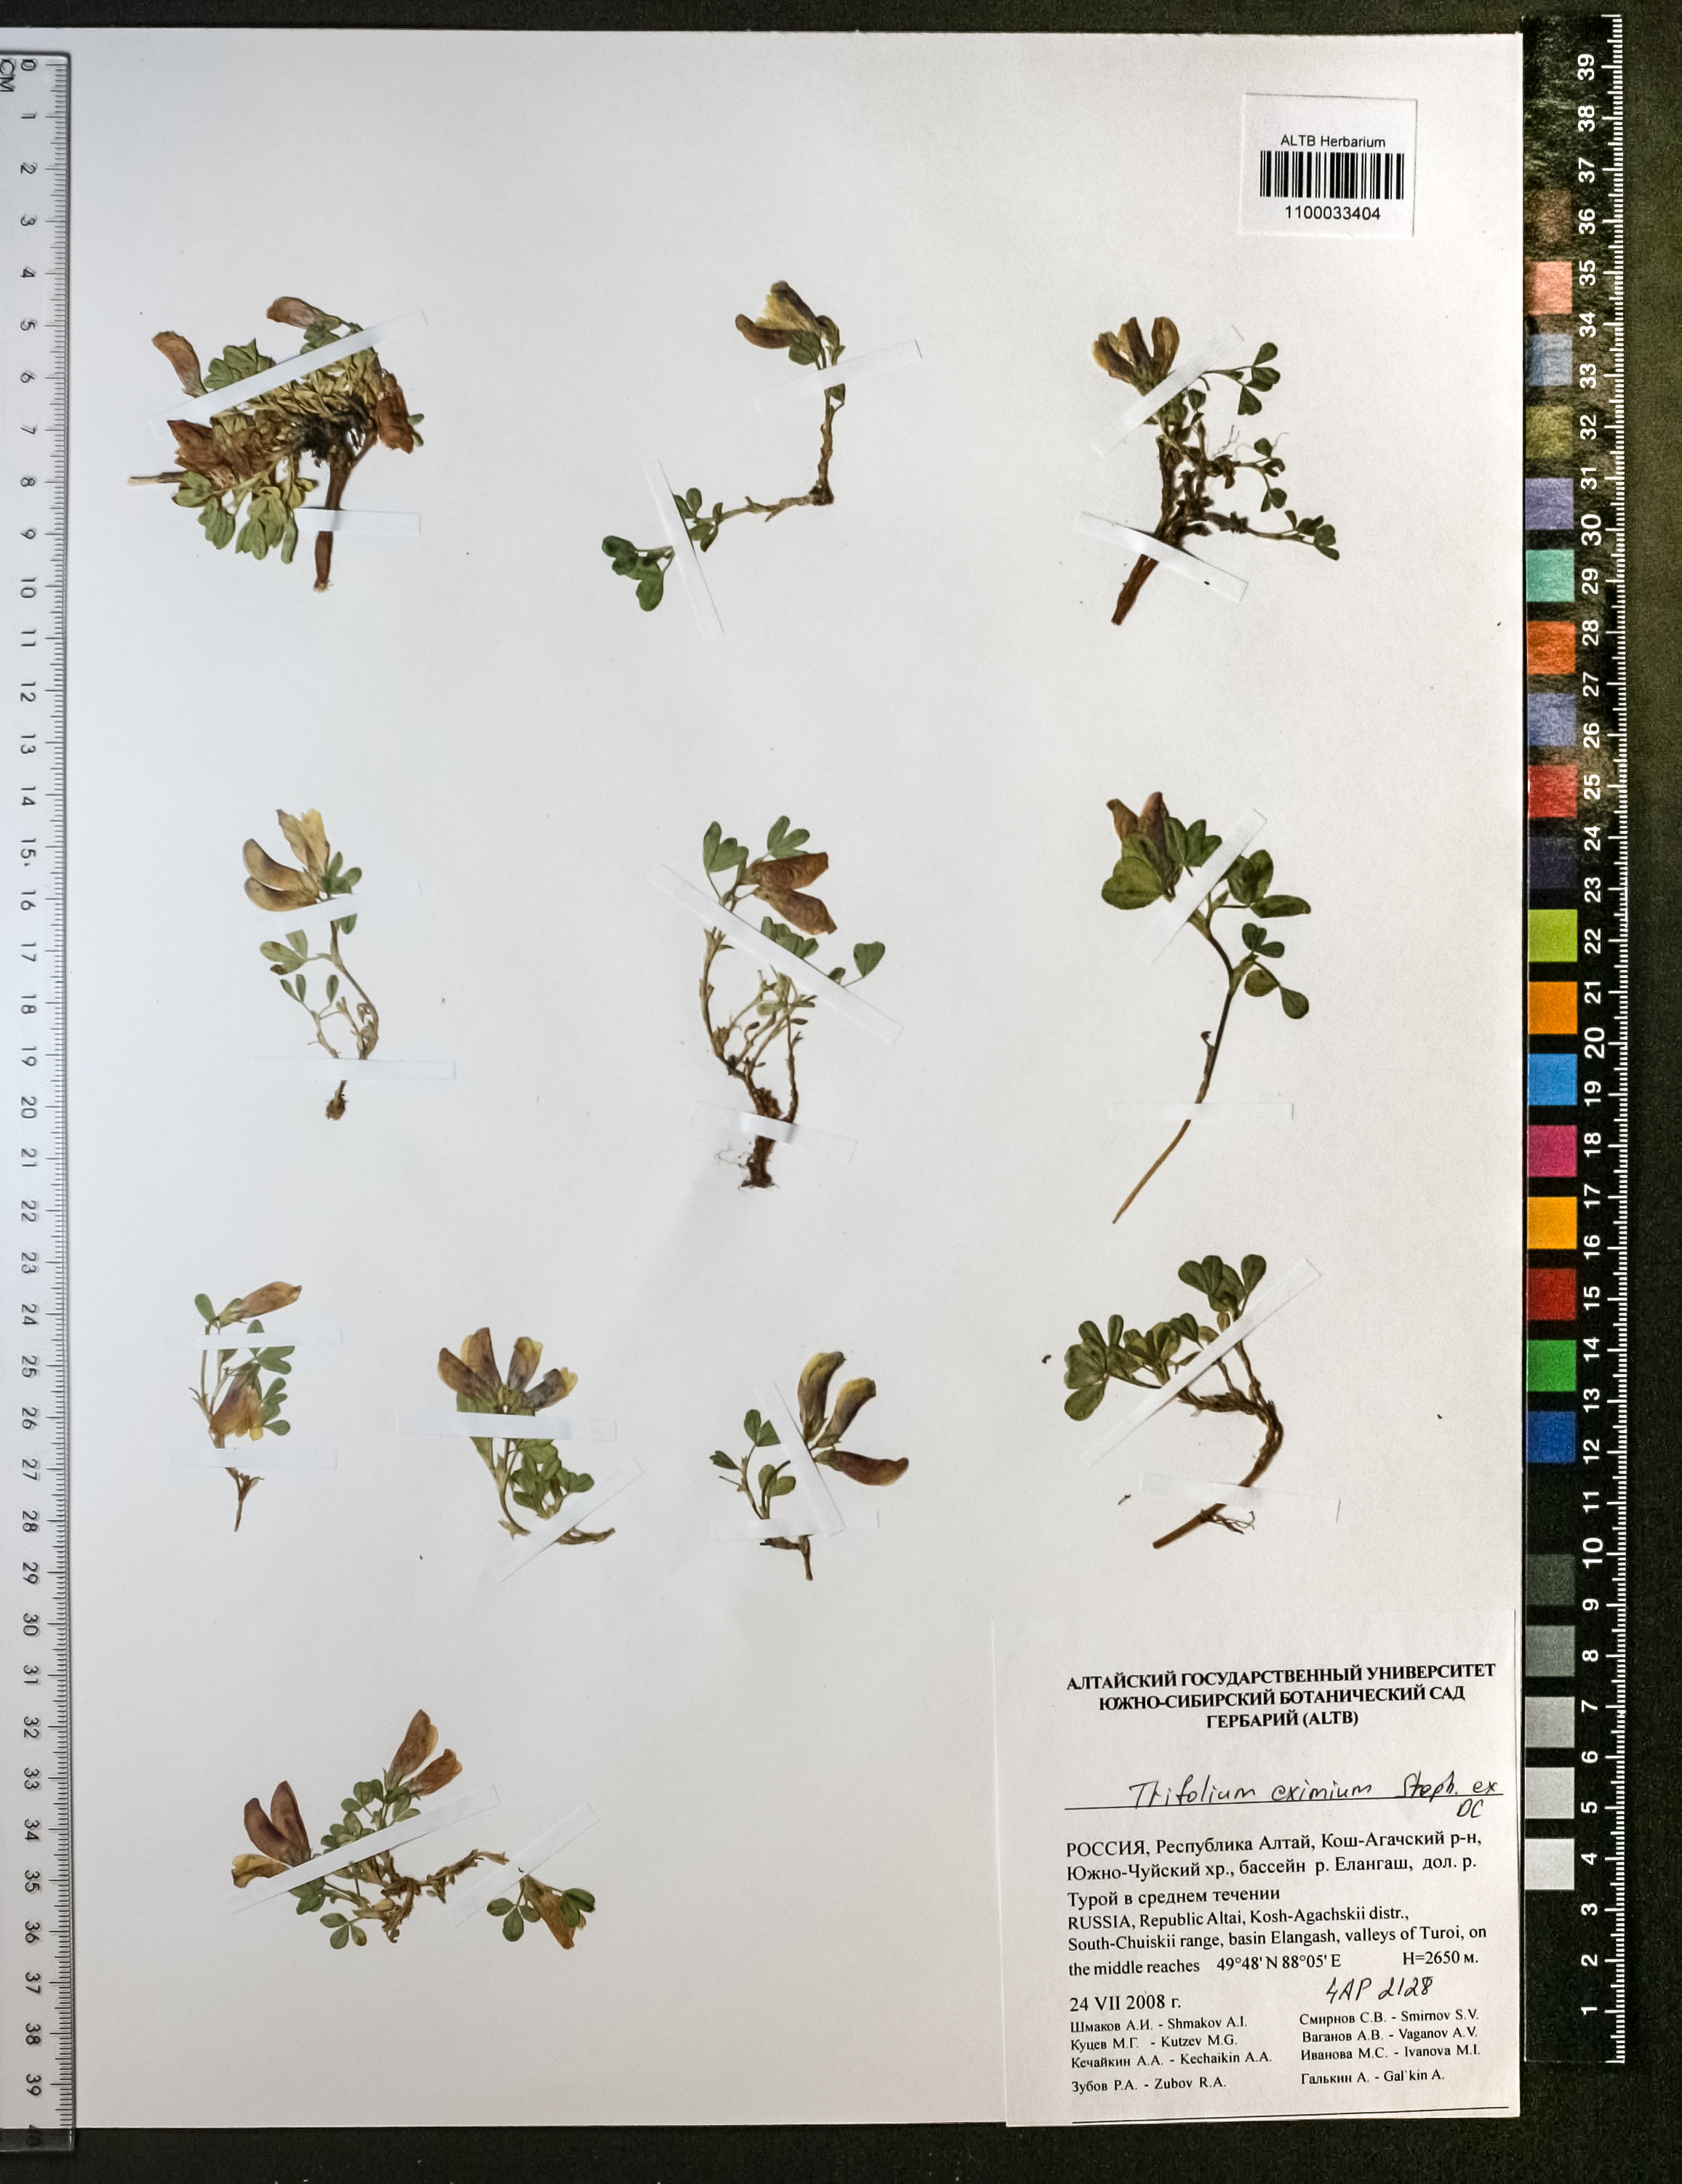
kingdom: Plantae
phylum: Tracheophyta
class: Magnoliopsida
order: Fabales
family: Fabaceae
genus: Trifolium
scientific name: Trifolium eximium
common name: Excellent clover
